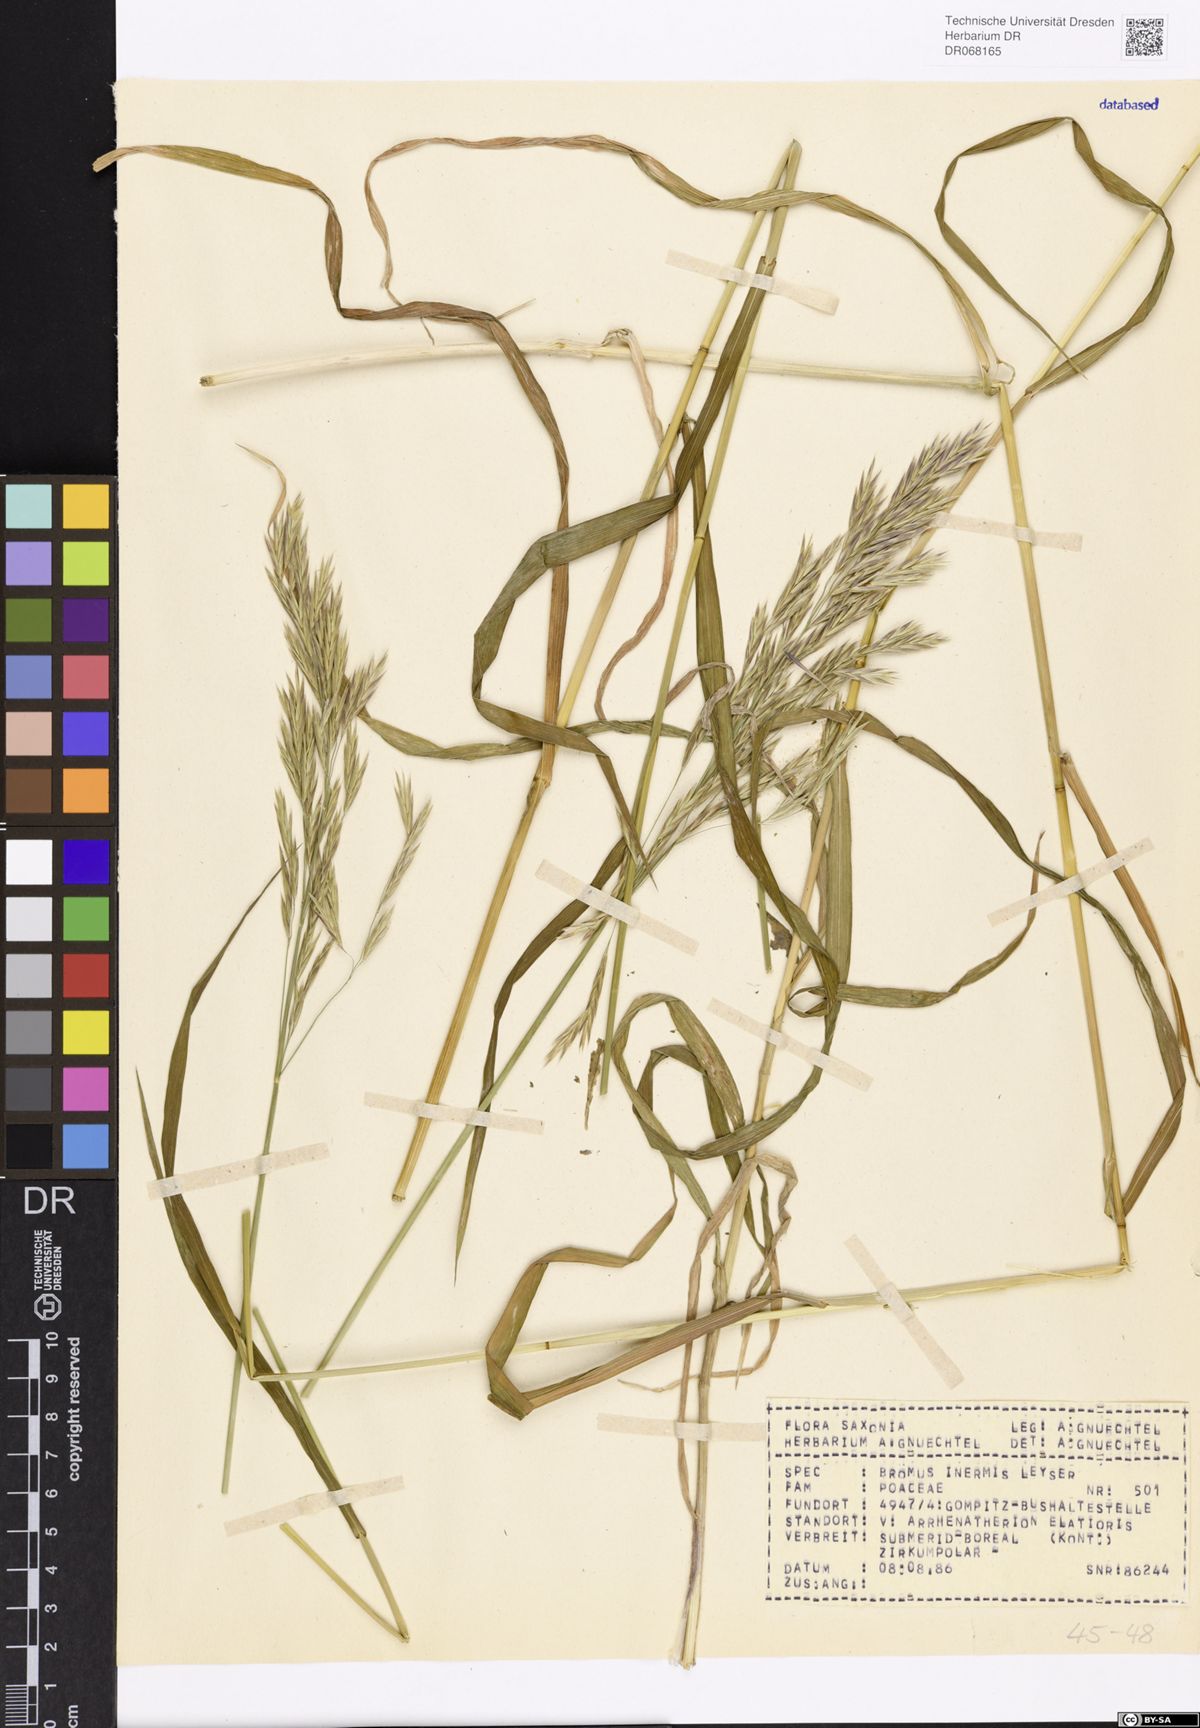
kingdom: Plantae
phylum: Tracheophyta
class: Liliopsida
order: Poales
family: Poaceae
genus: Bromus
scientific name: Bromus inermis
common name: Smooth brome
